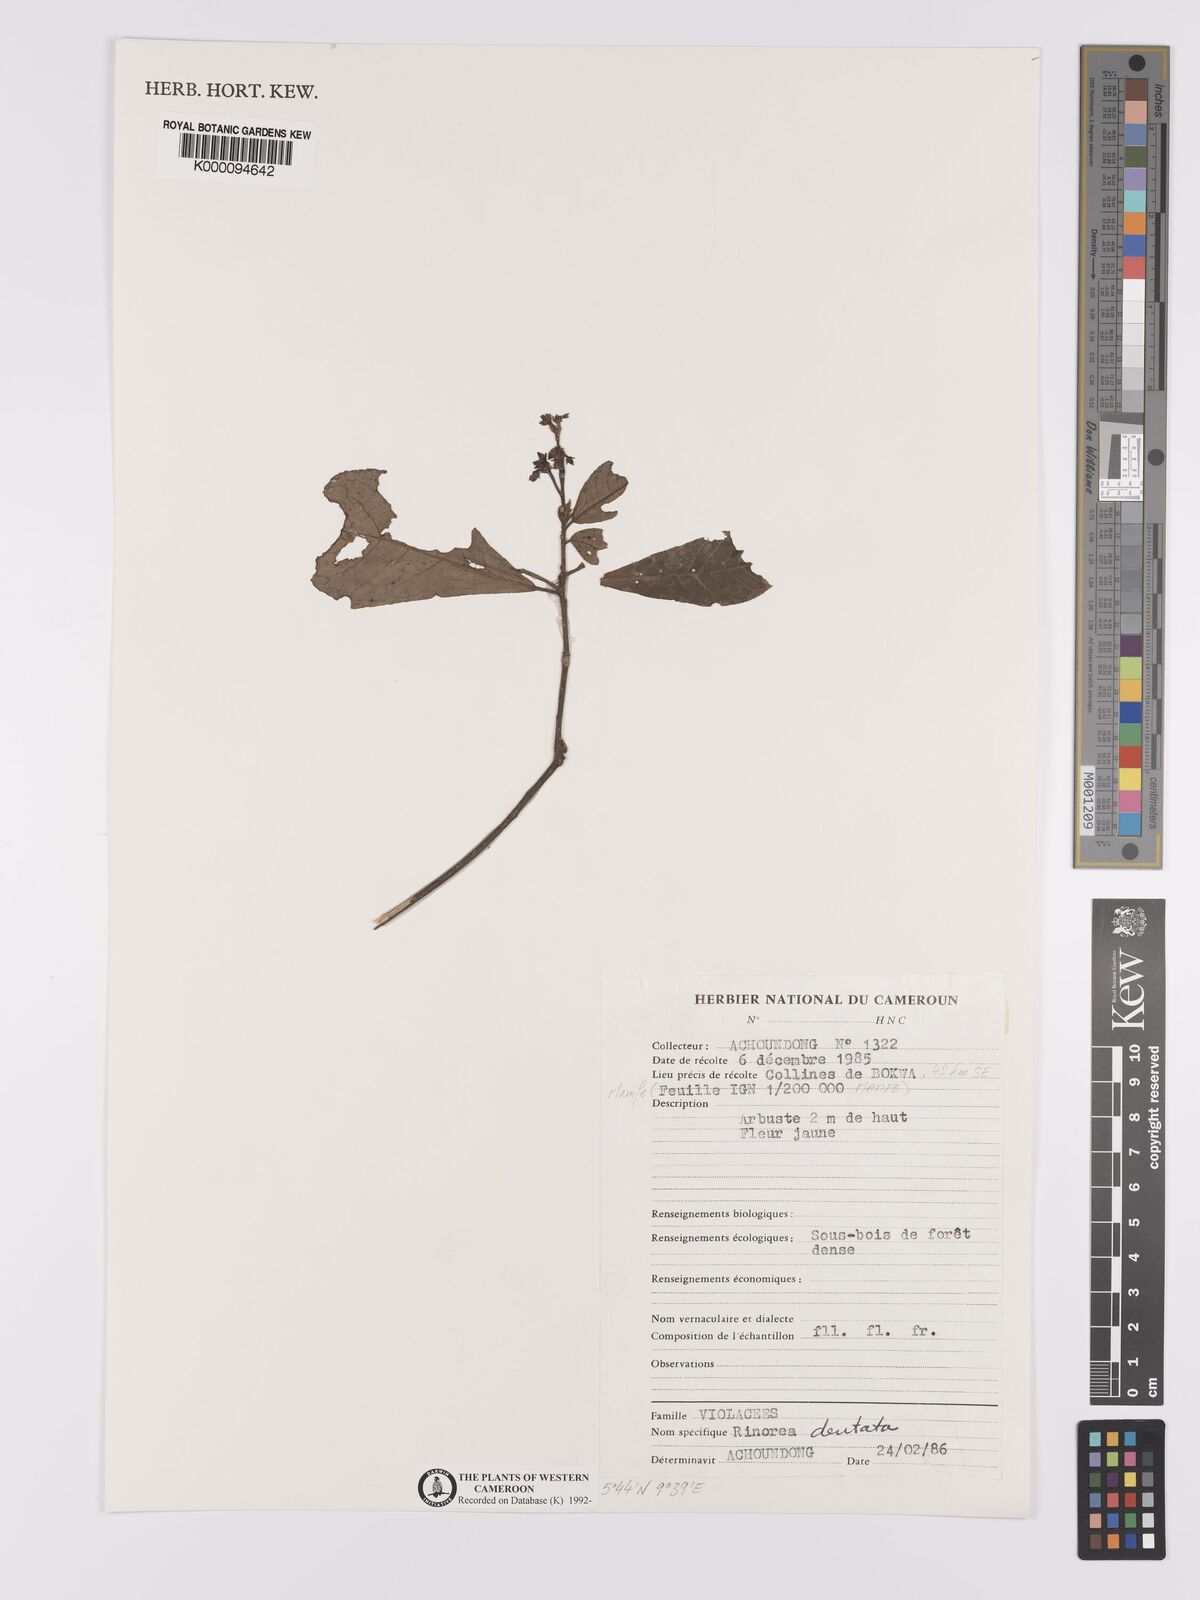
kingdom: Plantae
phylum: Tracheophyta
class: Magnoliopsida
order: Malpighiales
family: Violaceae
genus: Rinorea
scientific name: Rinorea dentata
